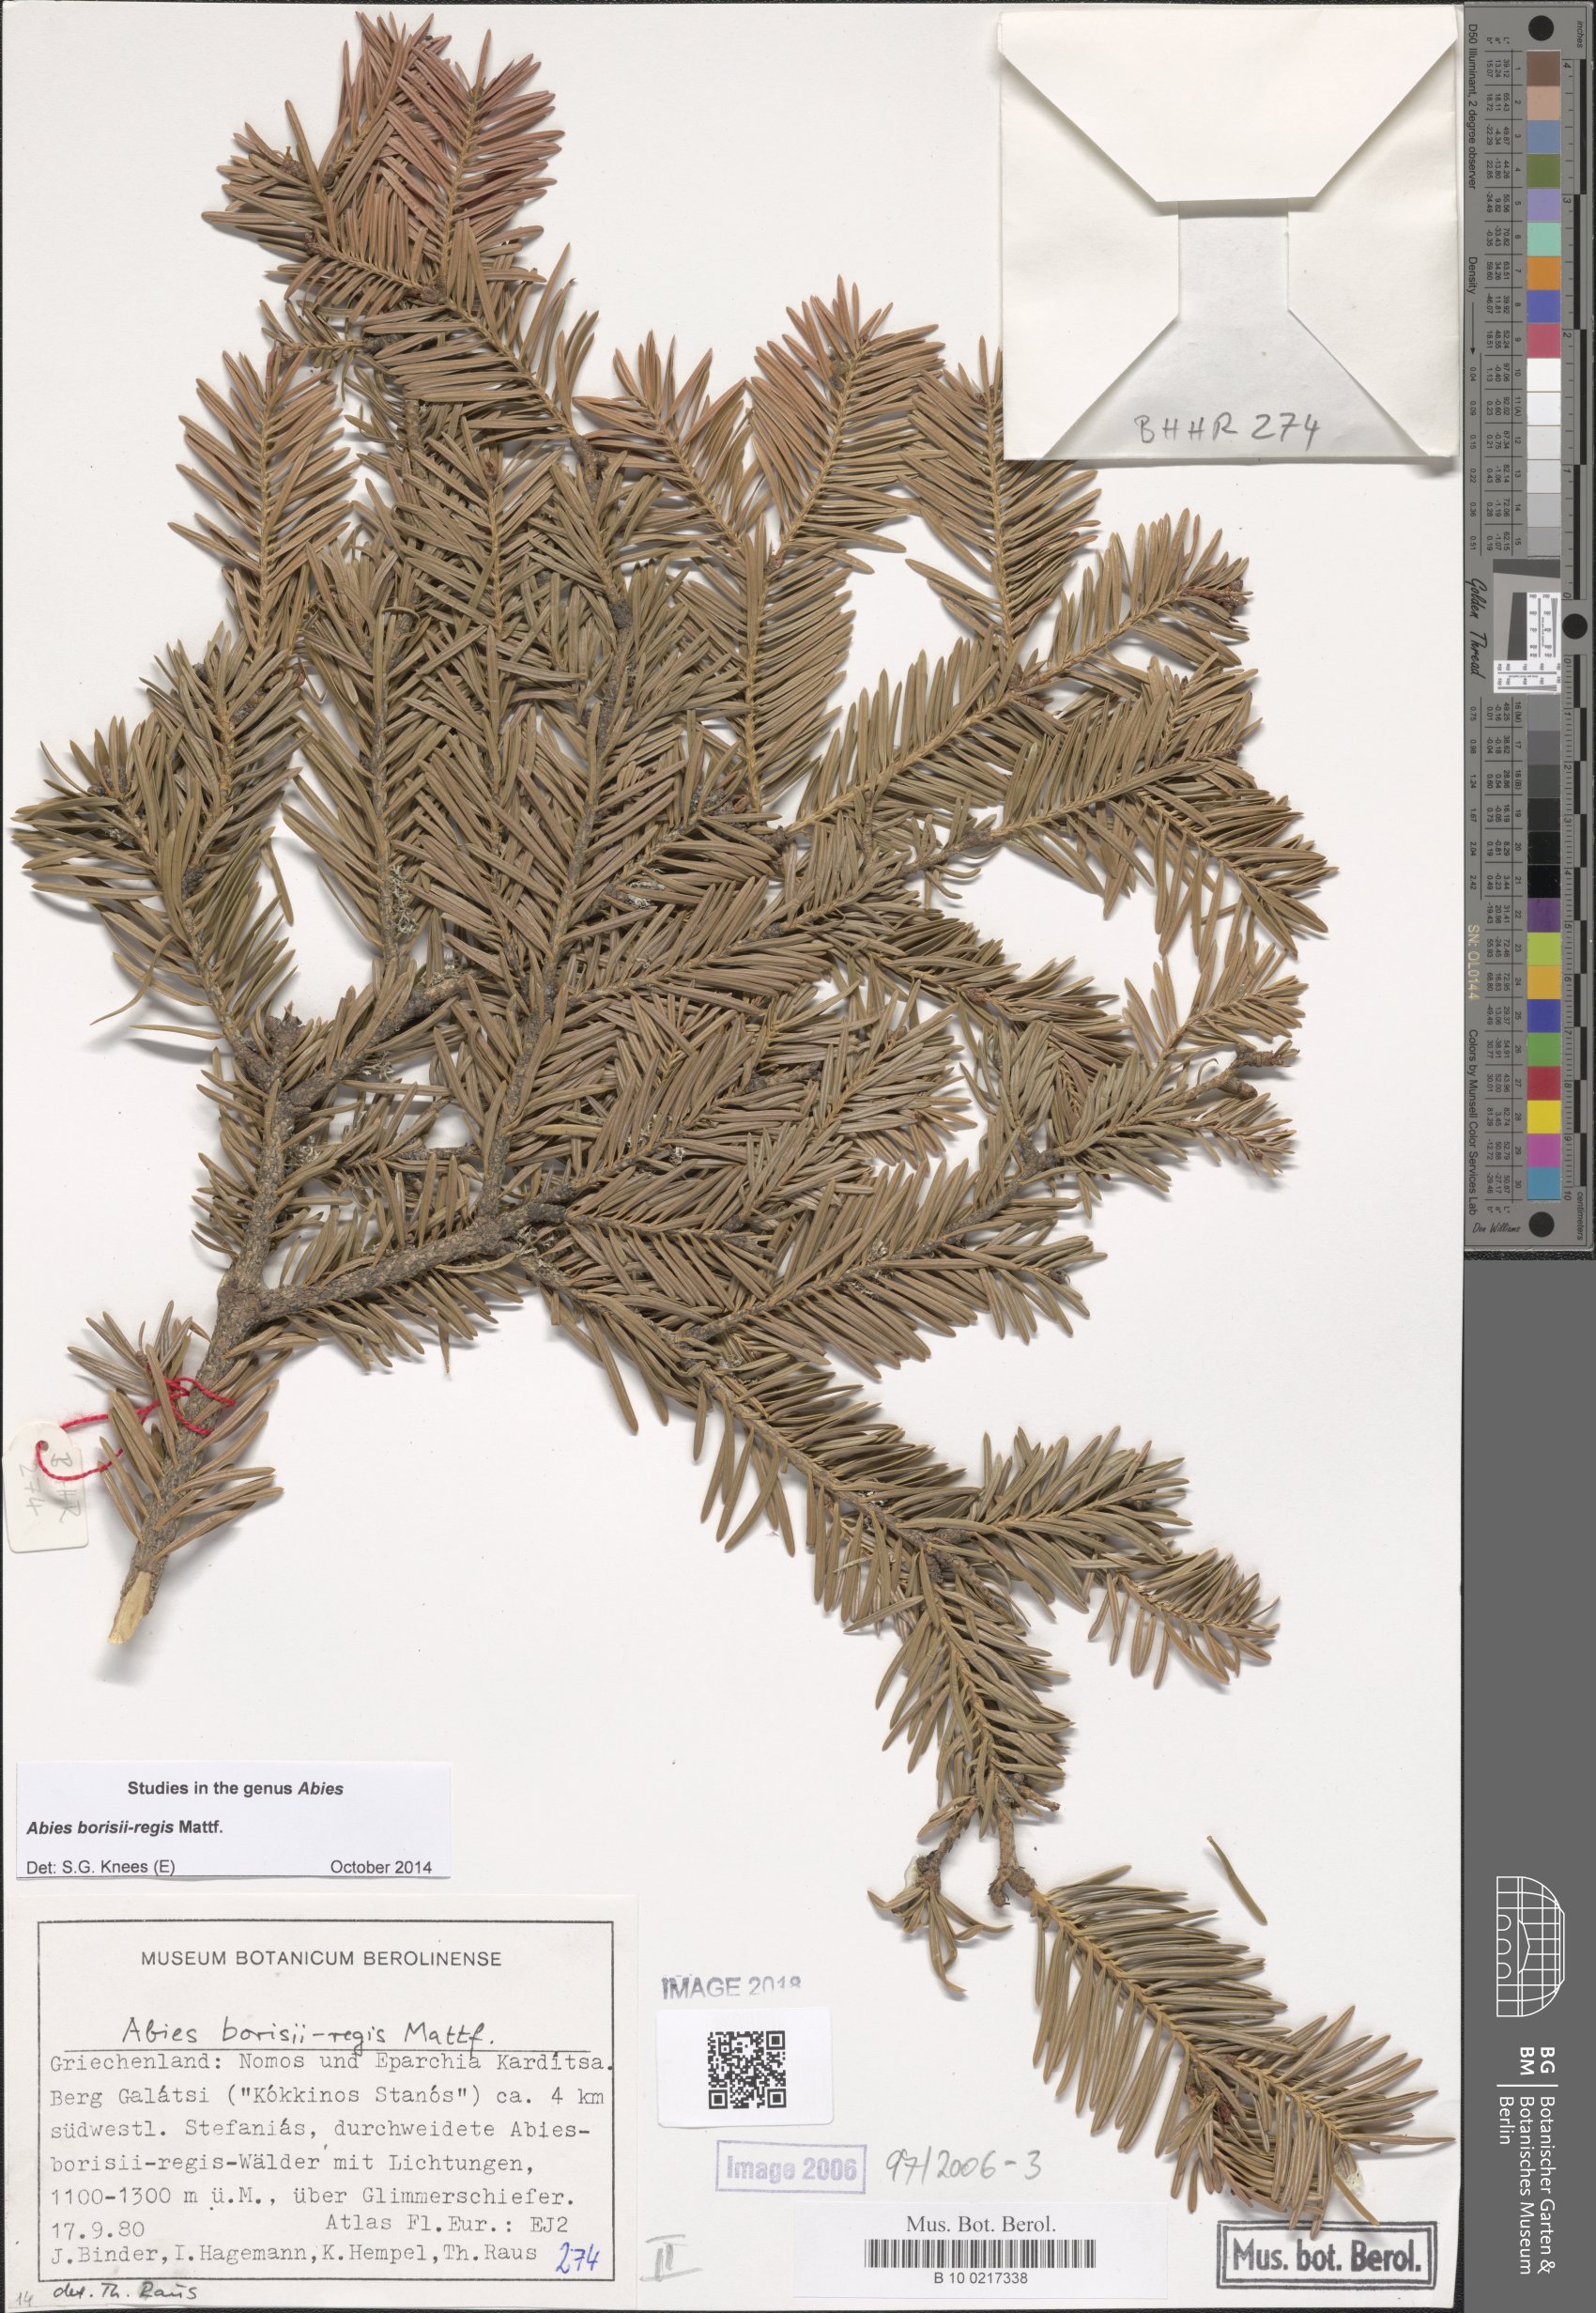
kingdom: Plantae
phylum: Tracheophyta
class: Pinopsida
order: Pinales
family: Pinaceae
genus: Abies
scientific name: Abies borisii-regis
